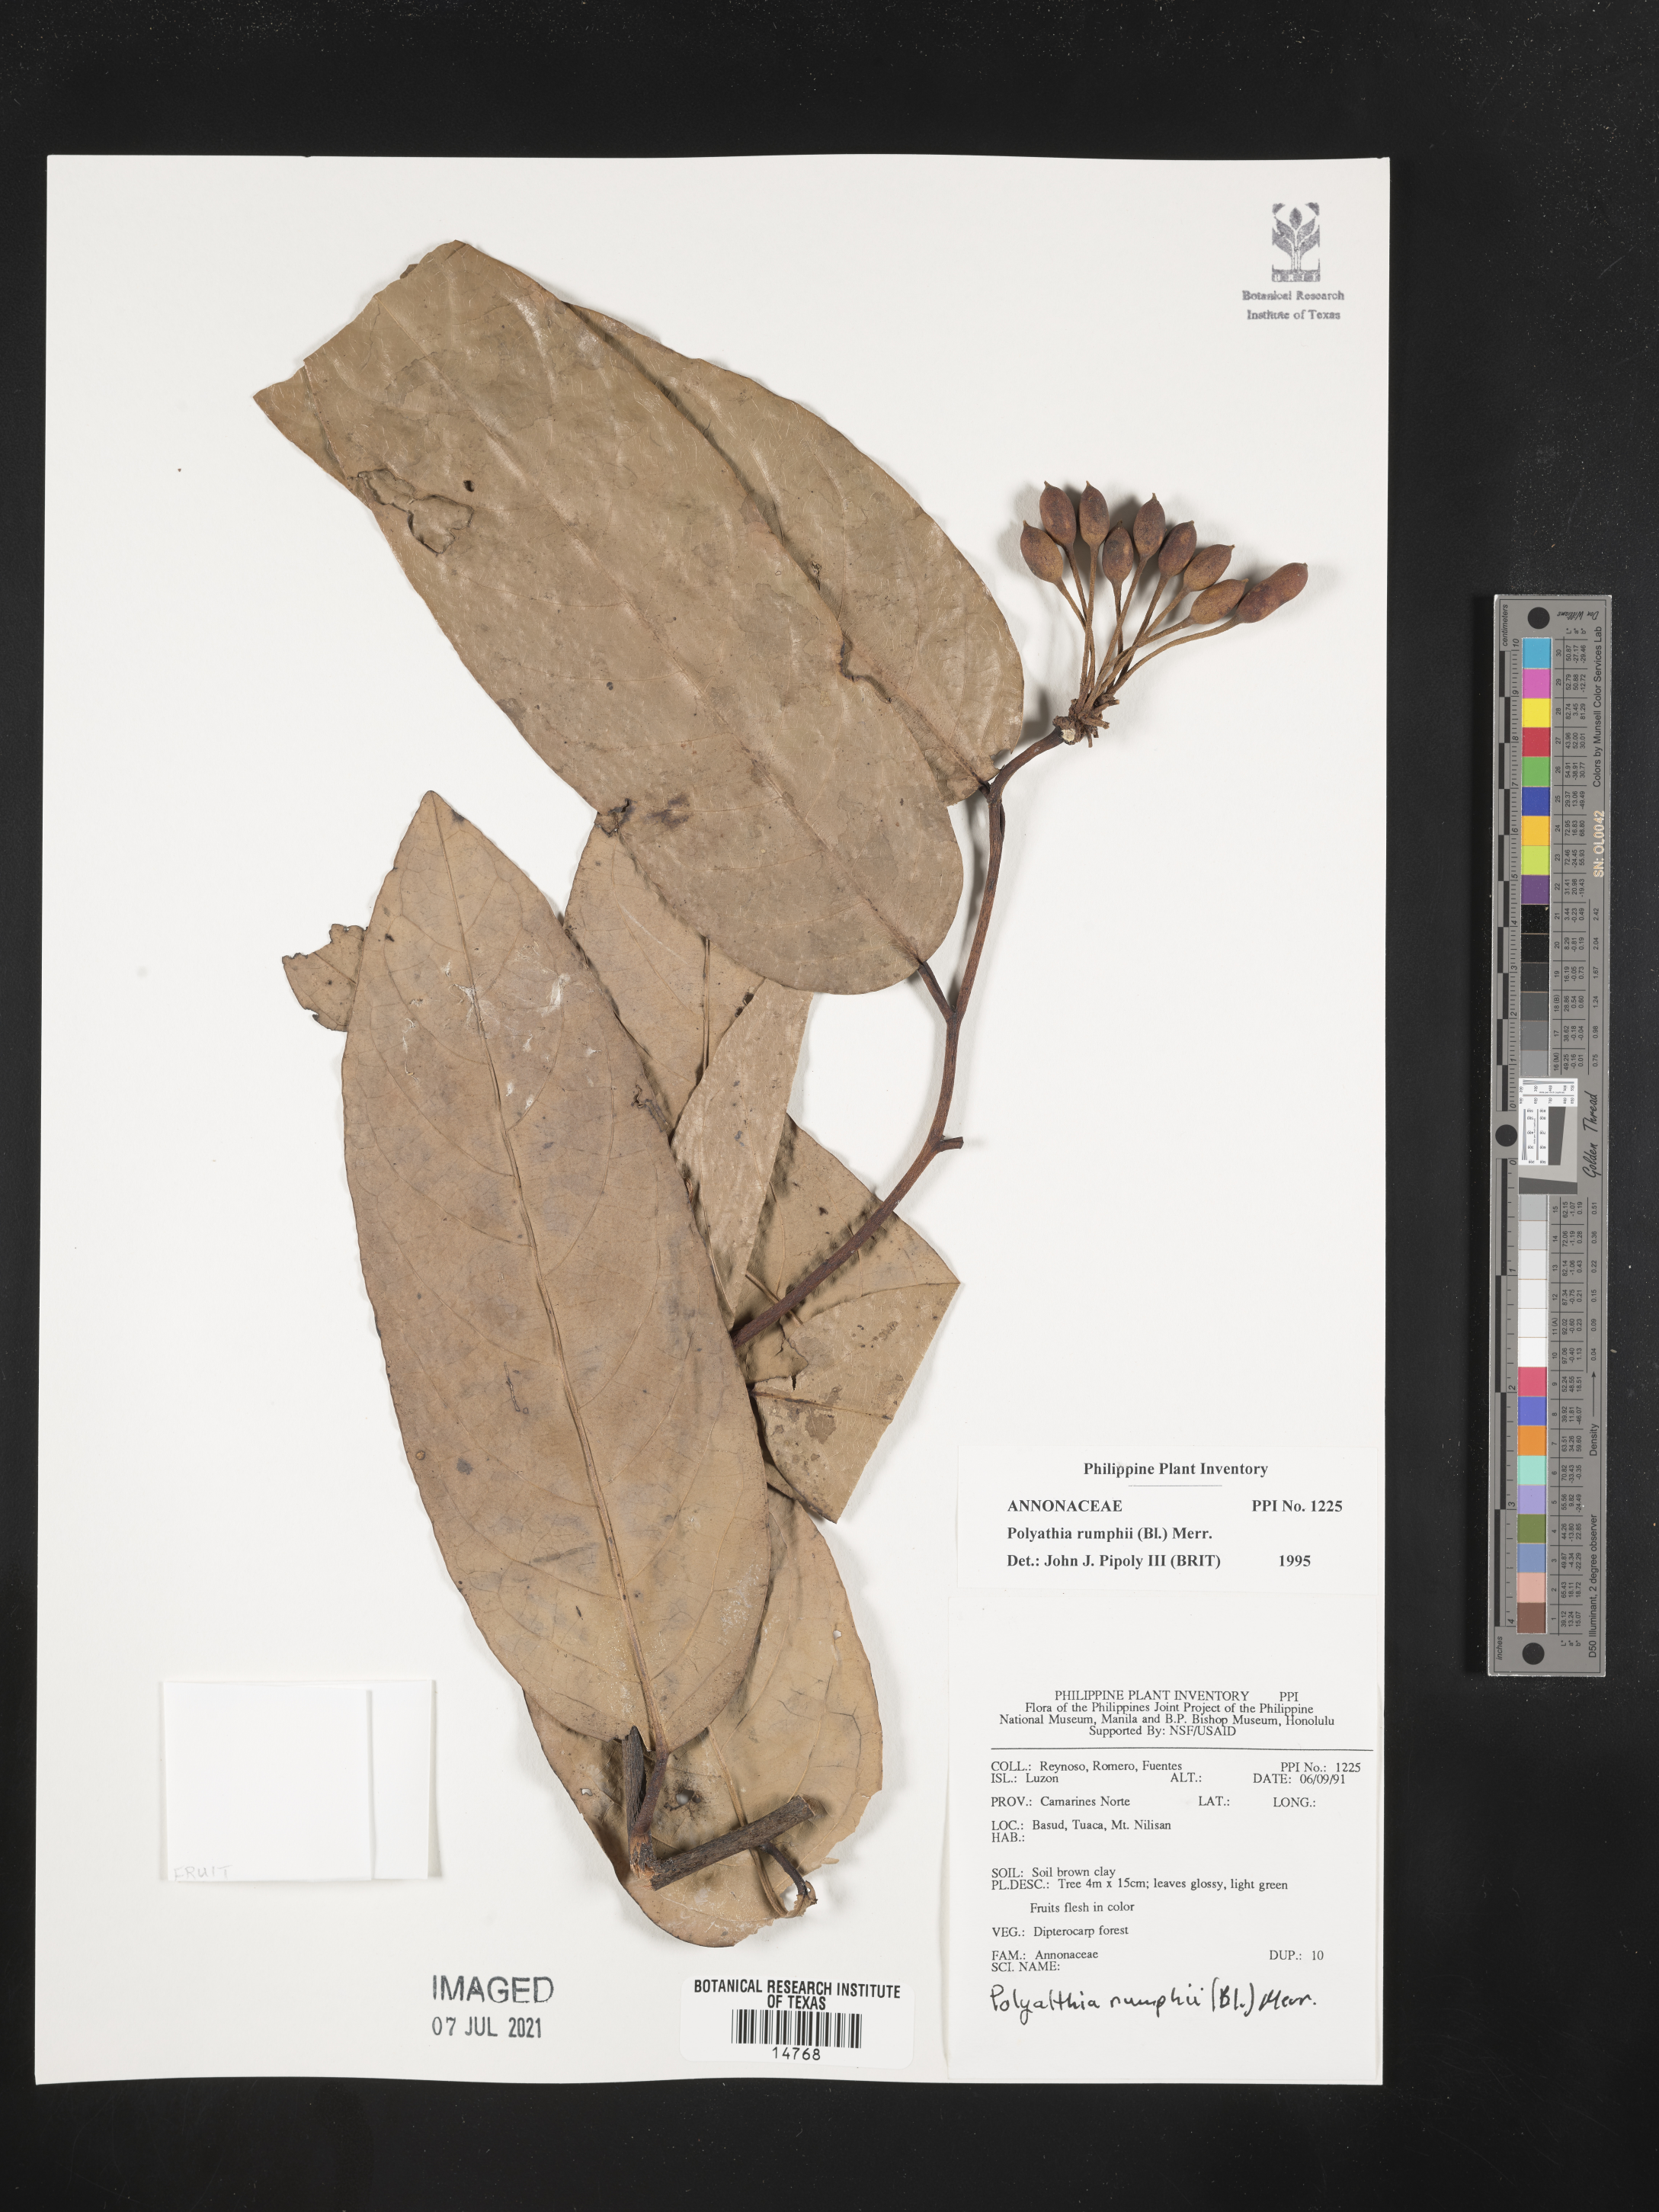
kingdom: Plantae
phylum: Tracheophyta
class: Magnoliopsida
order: Magnoliales
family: Annonaceae
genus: Hubera
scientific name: Hubera rumphii
